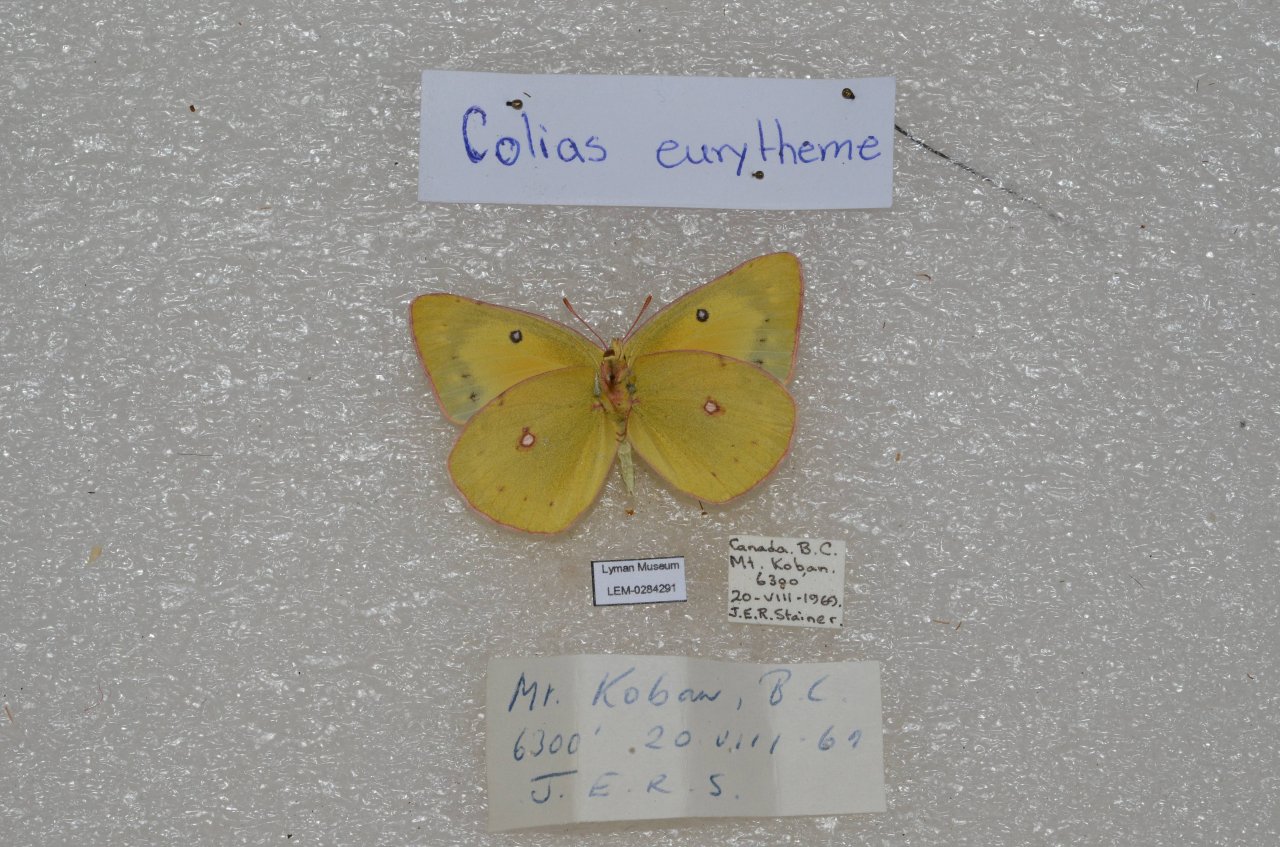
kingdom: Animalia
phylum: Arthropoda
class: Insecta
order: Lepidoptera
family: Pieridae
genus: Colias
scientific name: Colias eurytheme
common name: Orange Sulphur
